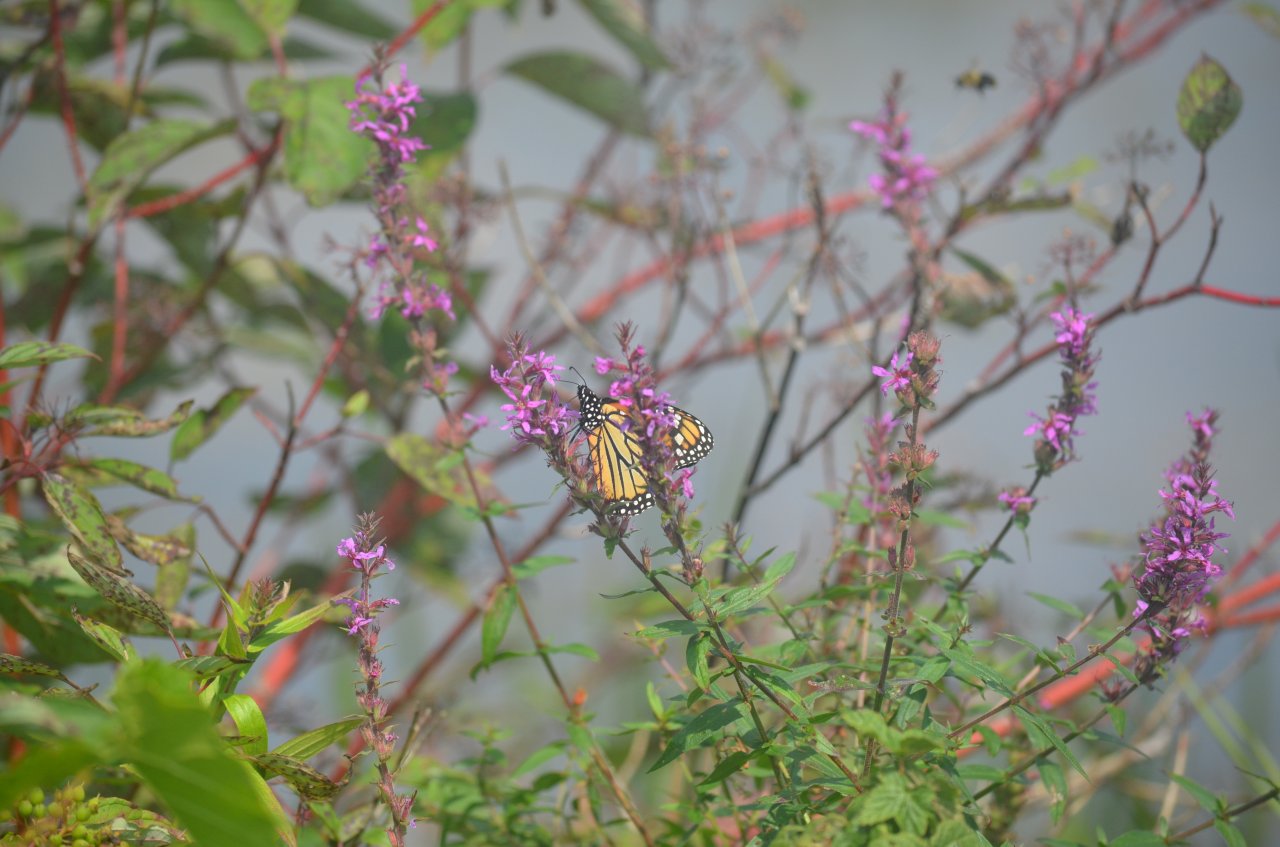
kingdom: Animalia
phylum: Arthropoda
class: Insecta
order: Lepidoptera
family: Nymphalidae
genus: Danaus
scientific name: Danaus plexippus
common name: Monarch
